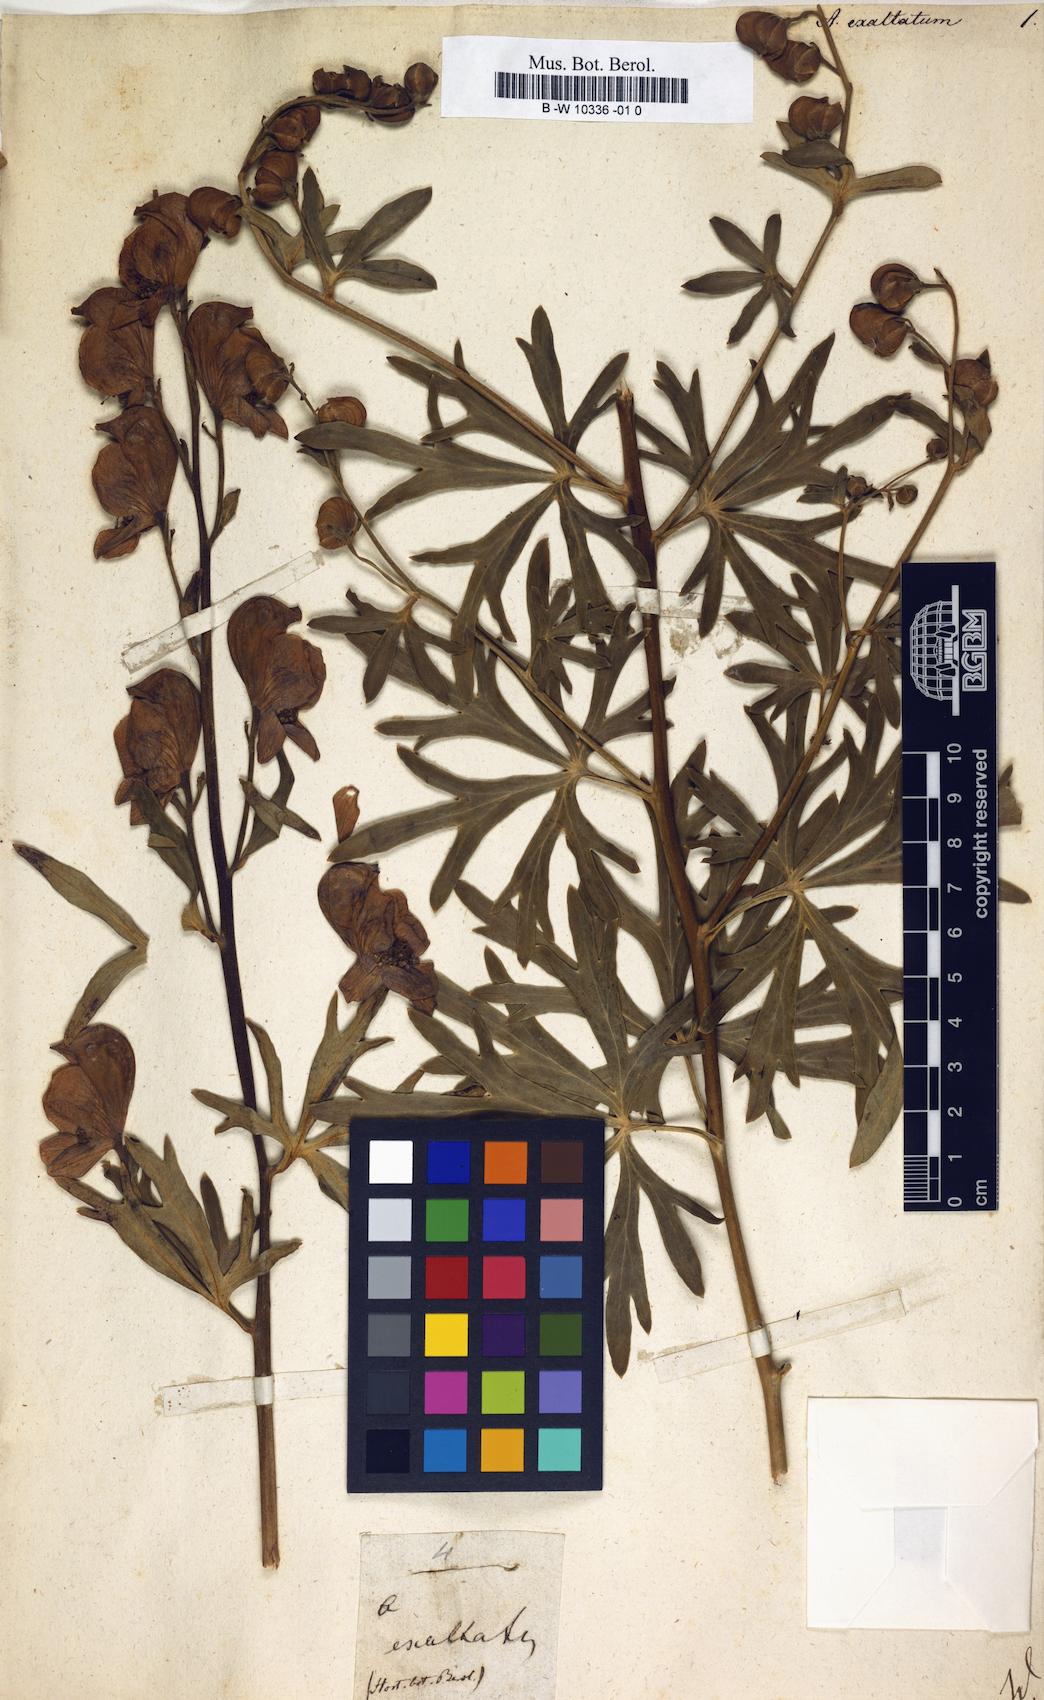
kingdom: Plantae
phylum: Tracheophyta
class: Magnoliopsida
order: Ranunculales
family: Ranunculaceae
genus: Aconitum
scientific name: Aconitum exaltatum
